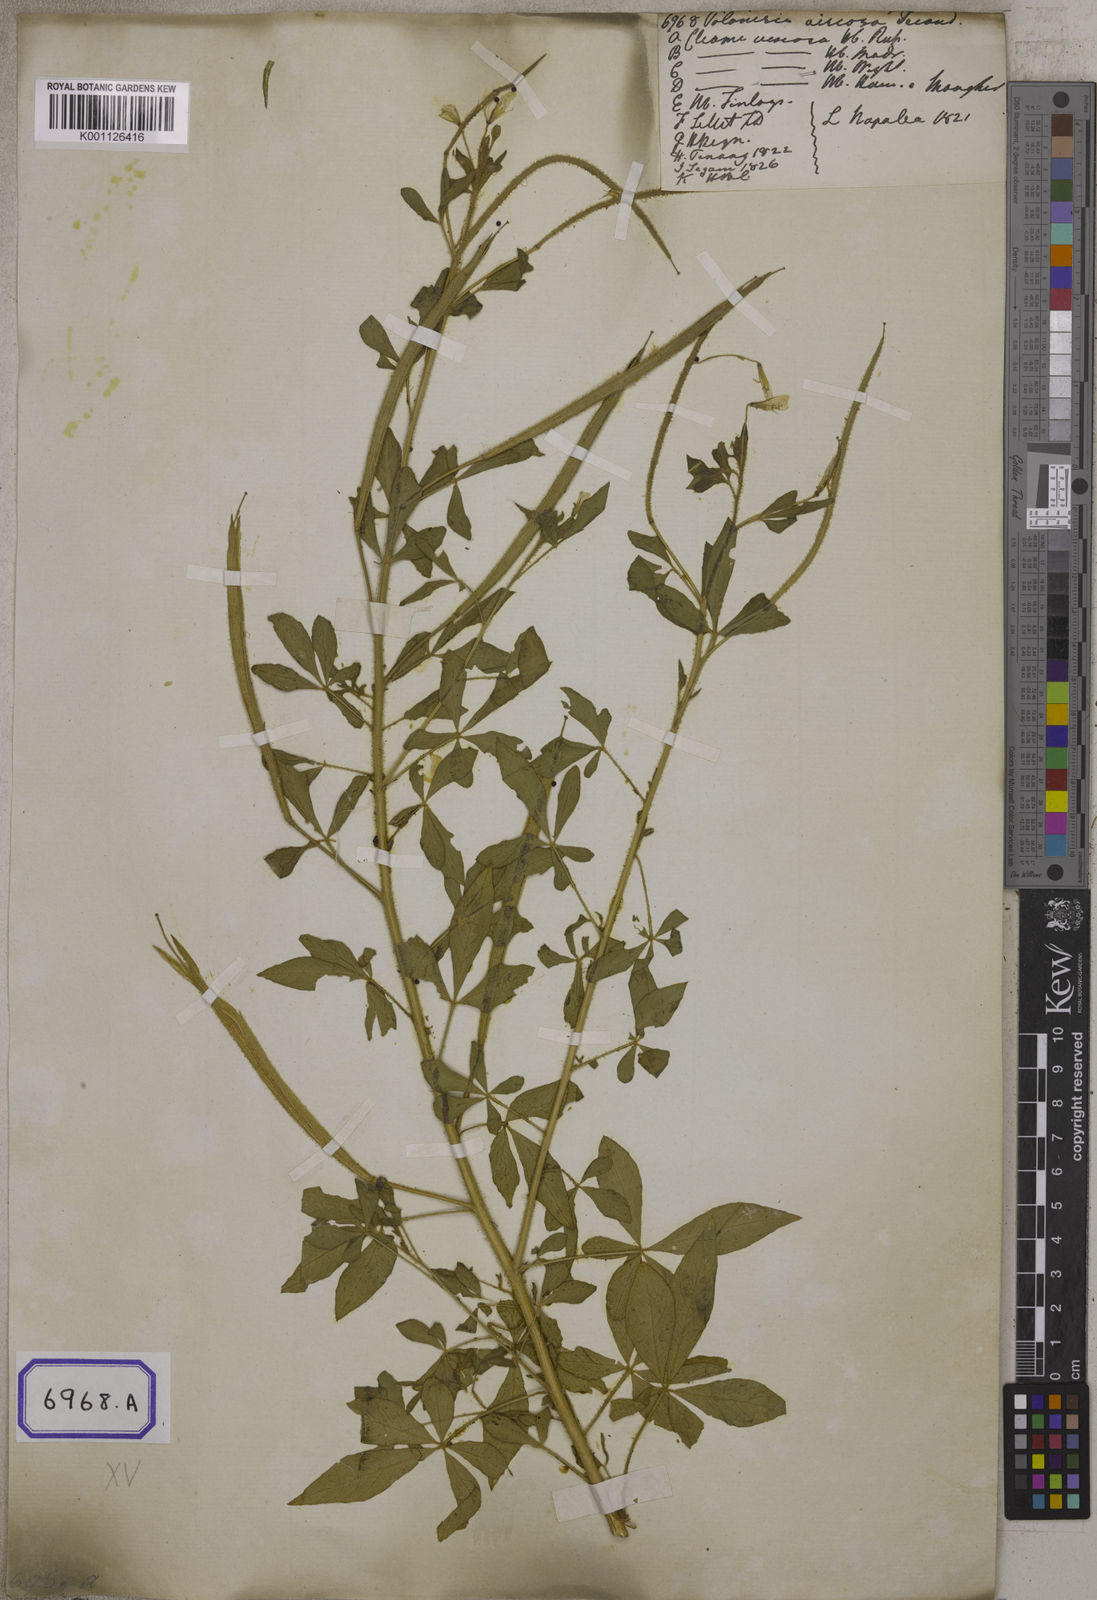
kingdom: Plantae
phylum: Tracheophyta
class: Magnoliopsida
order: Brassicales
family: Cleomaceae
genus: Arivela
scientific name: Arivela viscosa
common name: Asian spiderflower
